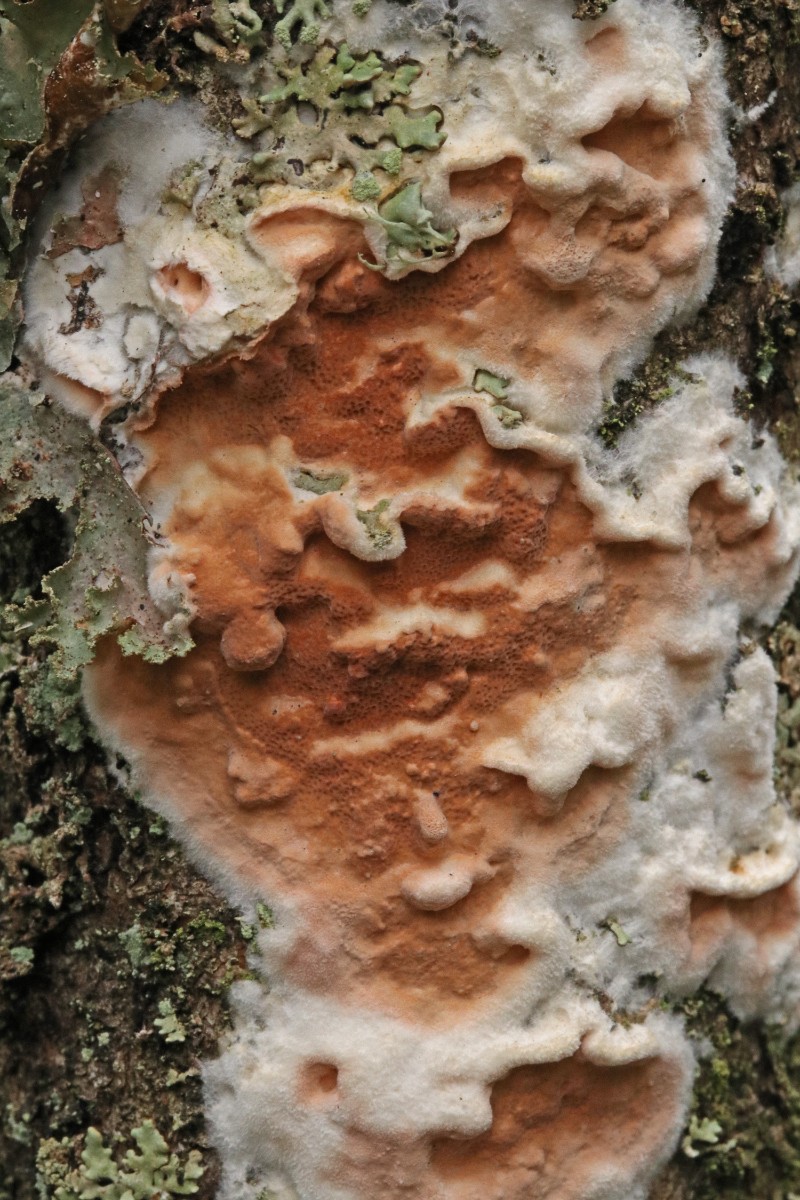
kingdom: Fungi
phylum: Basidiomycota
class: Agaricomycetes
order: Polyporales
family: Irpicaceae
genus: Meruliopsis
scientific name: Meruliopsis taxicola
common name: purpurbrun foldporesvamp
